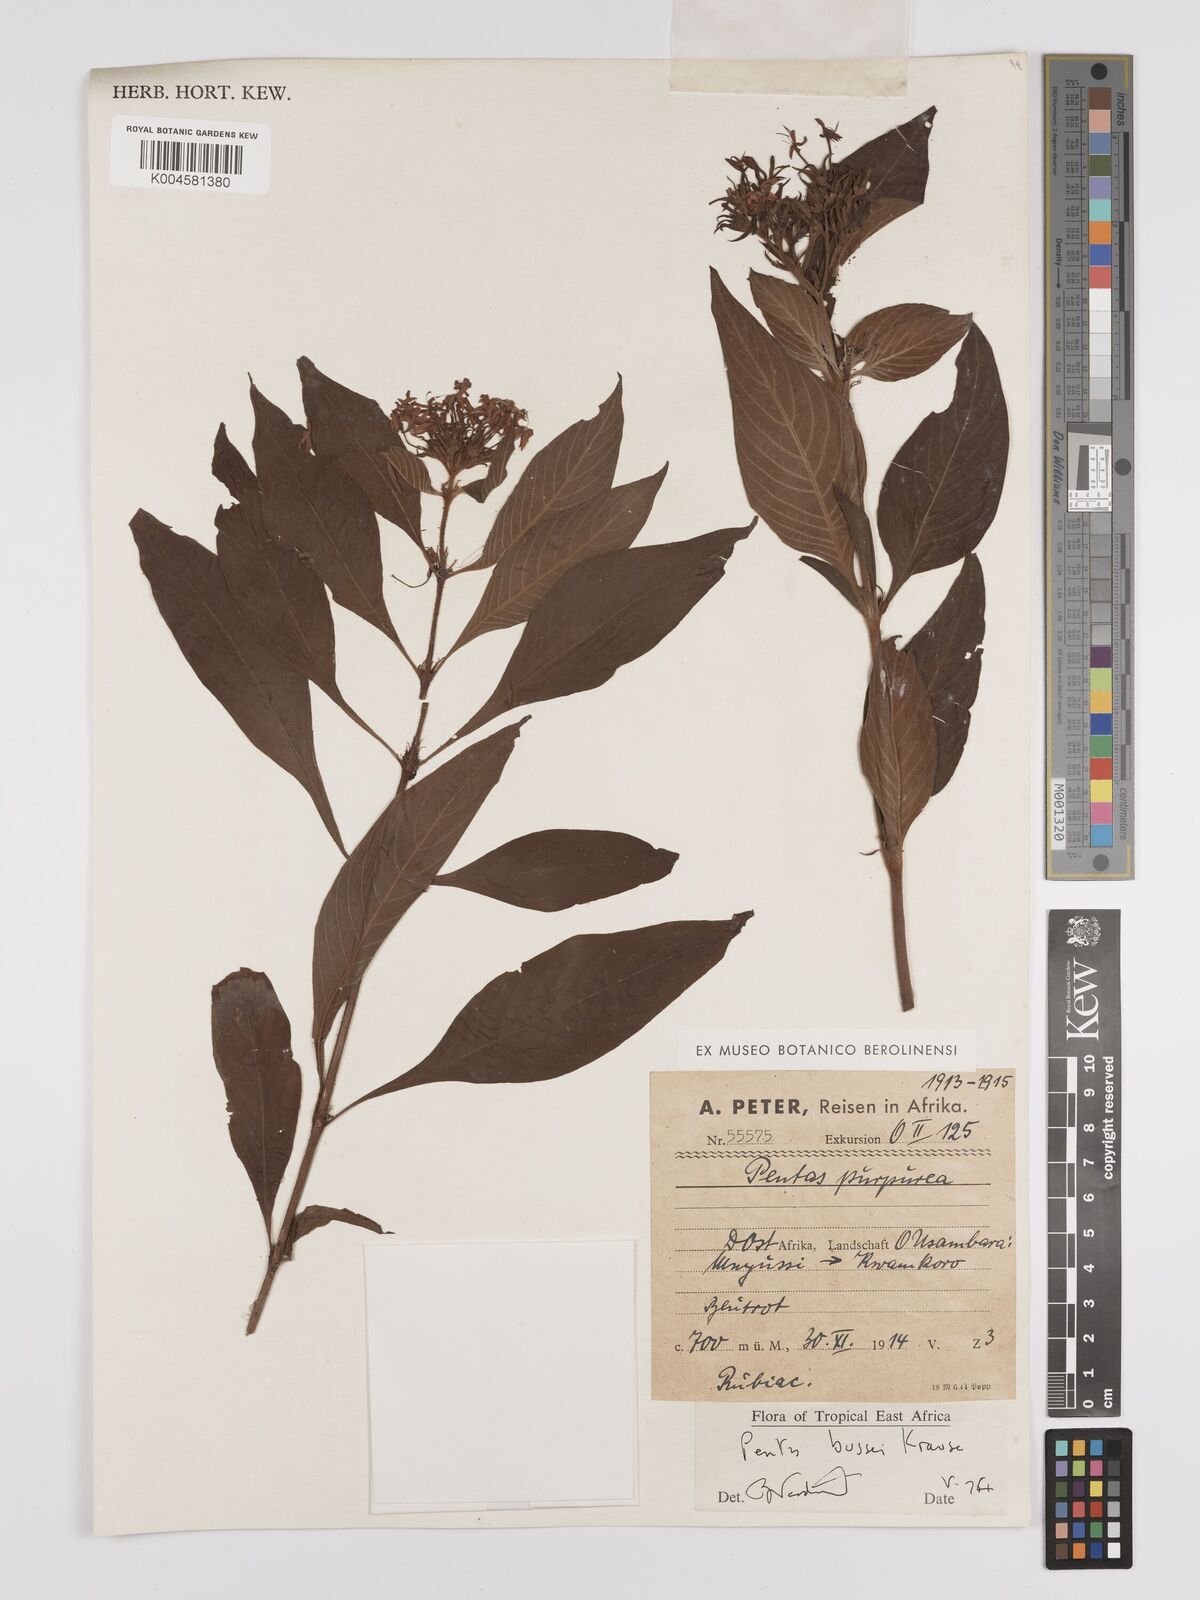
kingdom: Plantae
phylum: Tracheophyta
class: Magnoliopsida
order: Gentianales
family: Rubiaceae
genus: Rhodopentas
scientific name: Rhodopentas bussei
